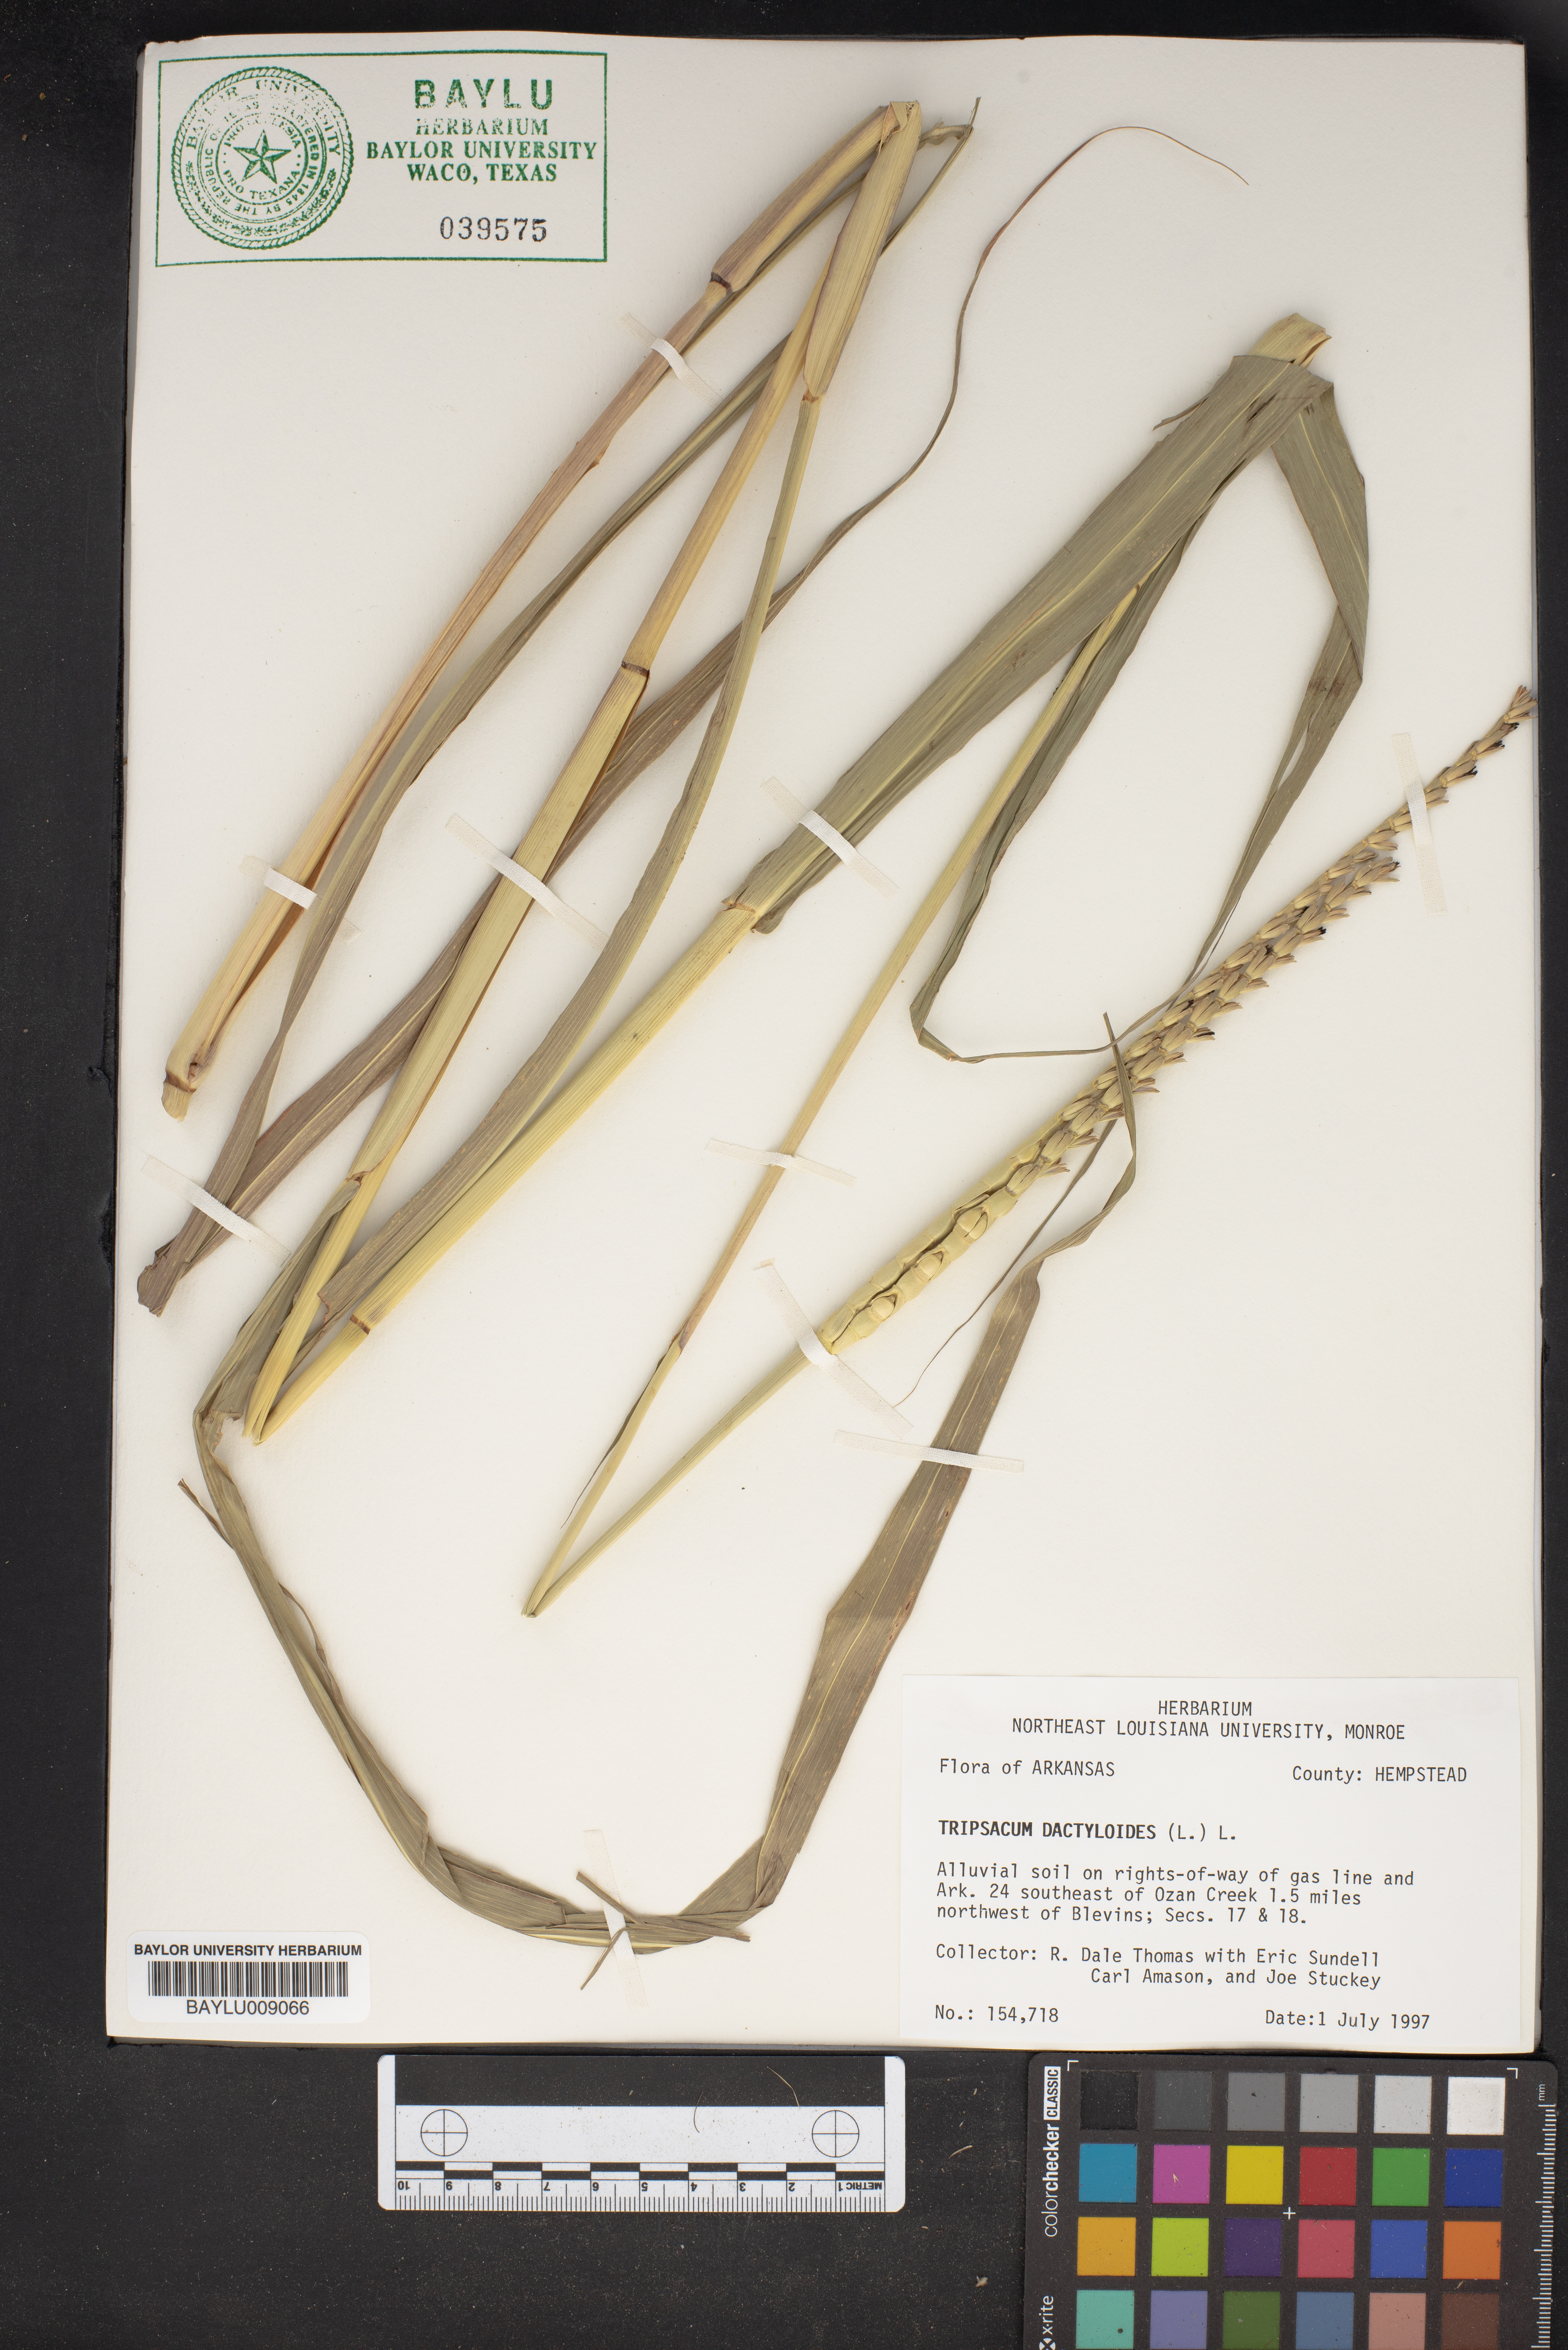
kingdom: Plantae
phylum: Tracheophyta
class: Liliopsida
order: Poales
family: Poaceae
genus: Tripsacum
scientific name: Tripsacum dactyloides
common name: Buffalo-grass
